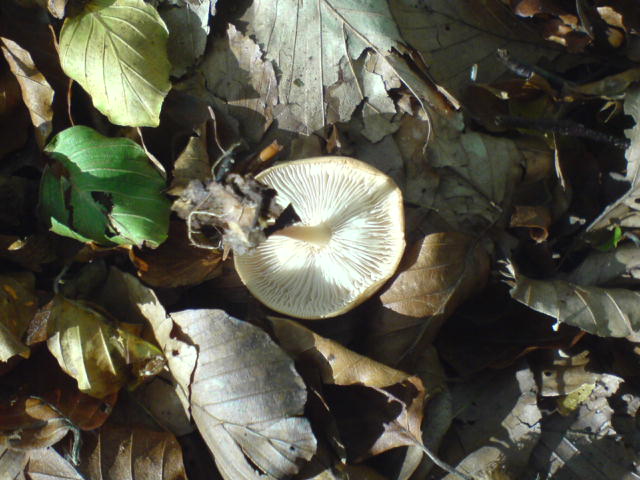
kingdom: Fungi
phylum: Basidiomycota
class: Agaricomycetes
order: Agaricales
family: Omphalotaceae
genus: Gymnopus
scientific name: Gymnopus dryophilus
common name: løv-fladhat
